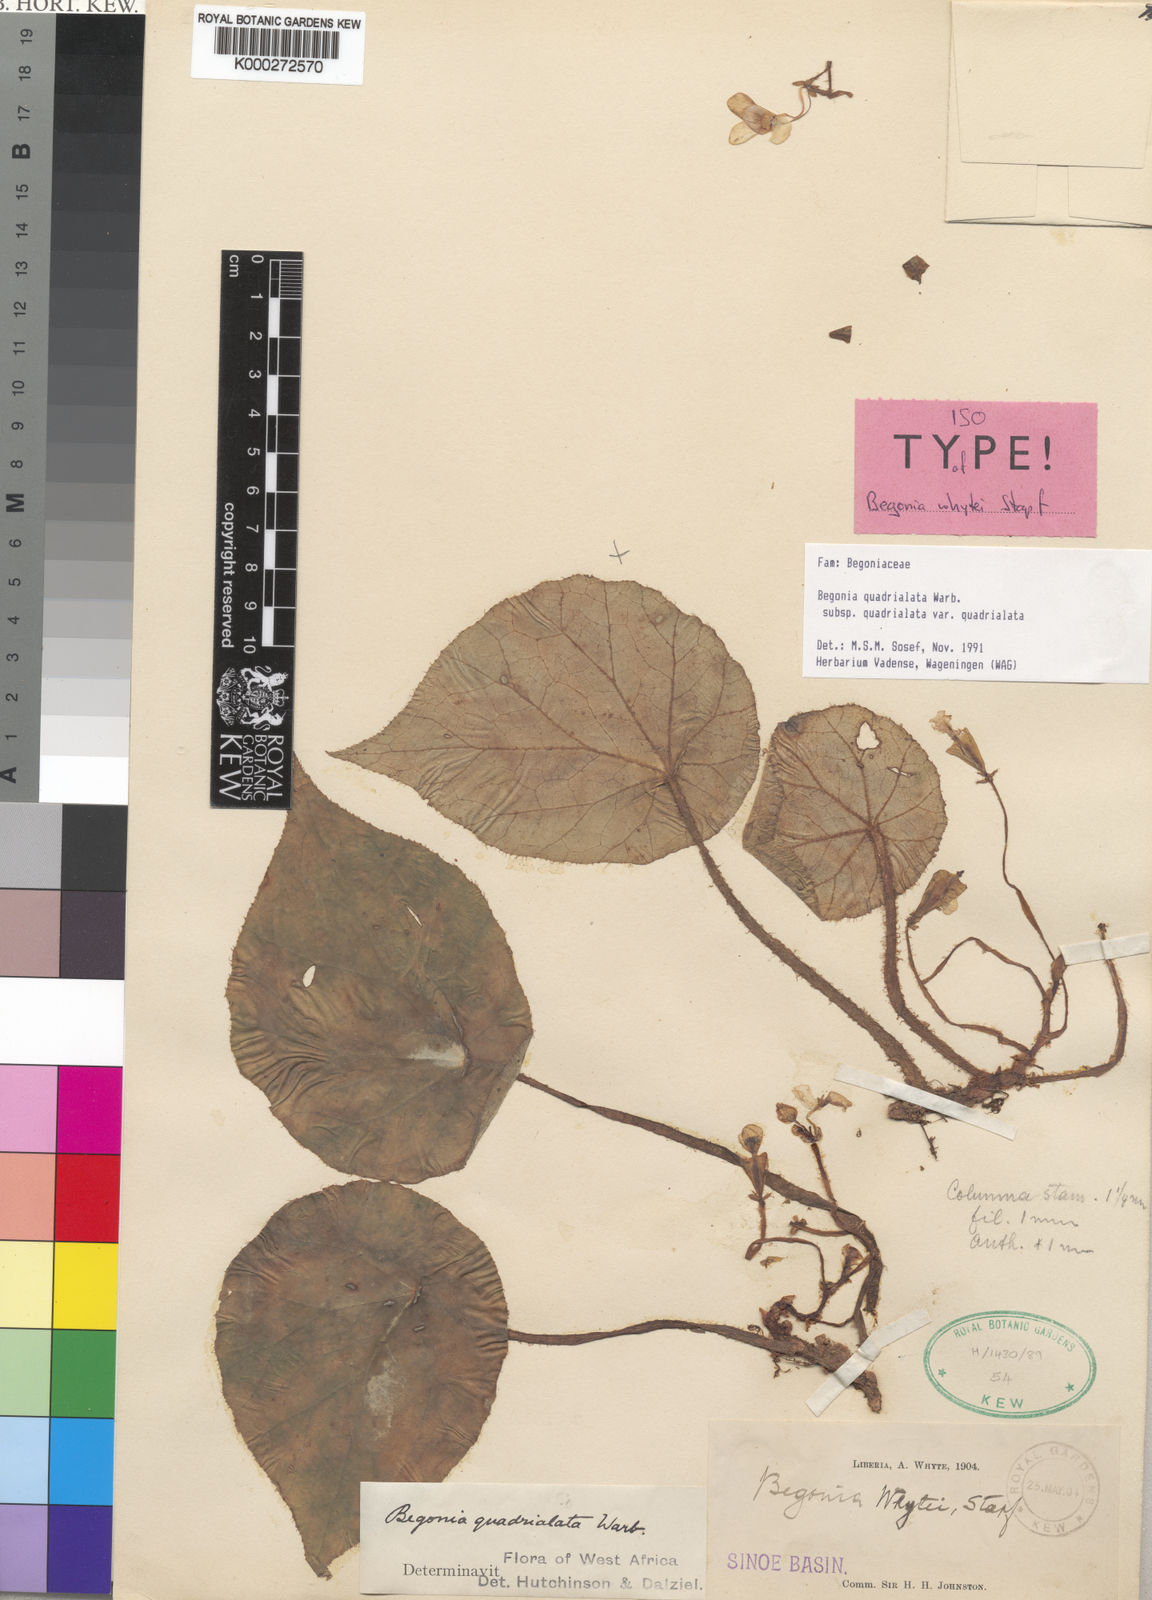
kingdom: Plantae
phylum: Tracheophyta
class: Magnoliopsida
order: Cucurbitales
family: Begoniaceae
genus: Begonia
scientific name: Begonia quadrialata
